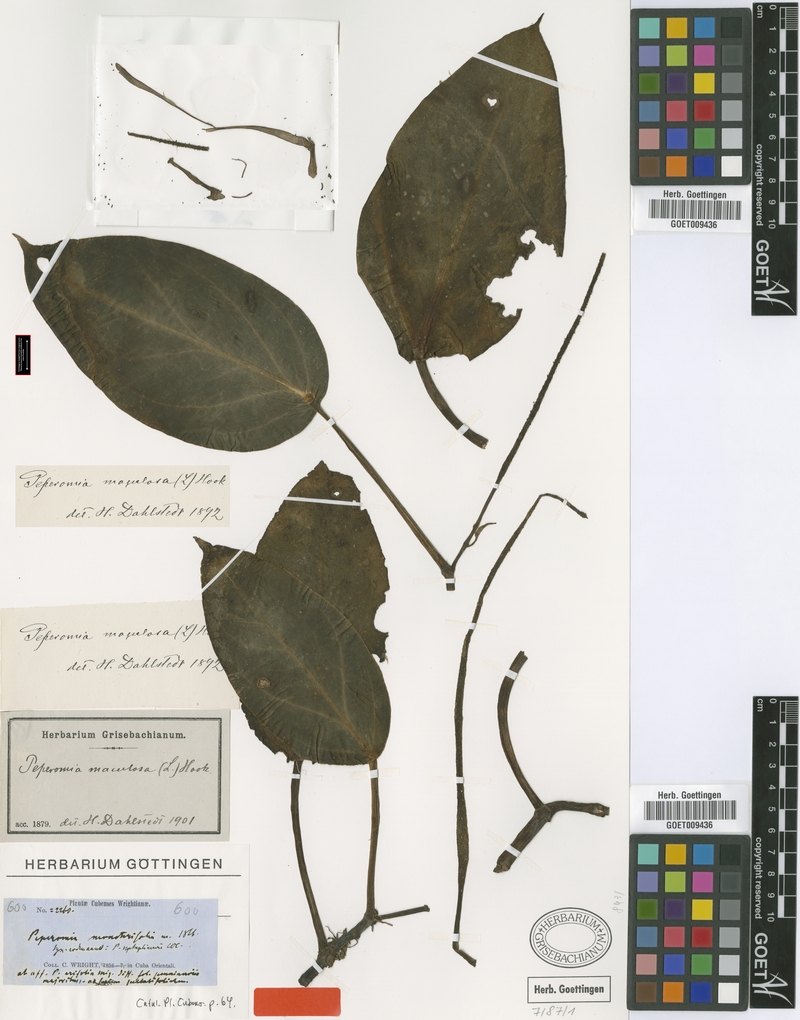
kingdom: Plantae
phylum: Tracheophyta
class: Magnoliopsida
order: Piperales
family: Piperaceae
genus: Peperomia
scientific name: Peperomia maculosa
